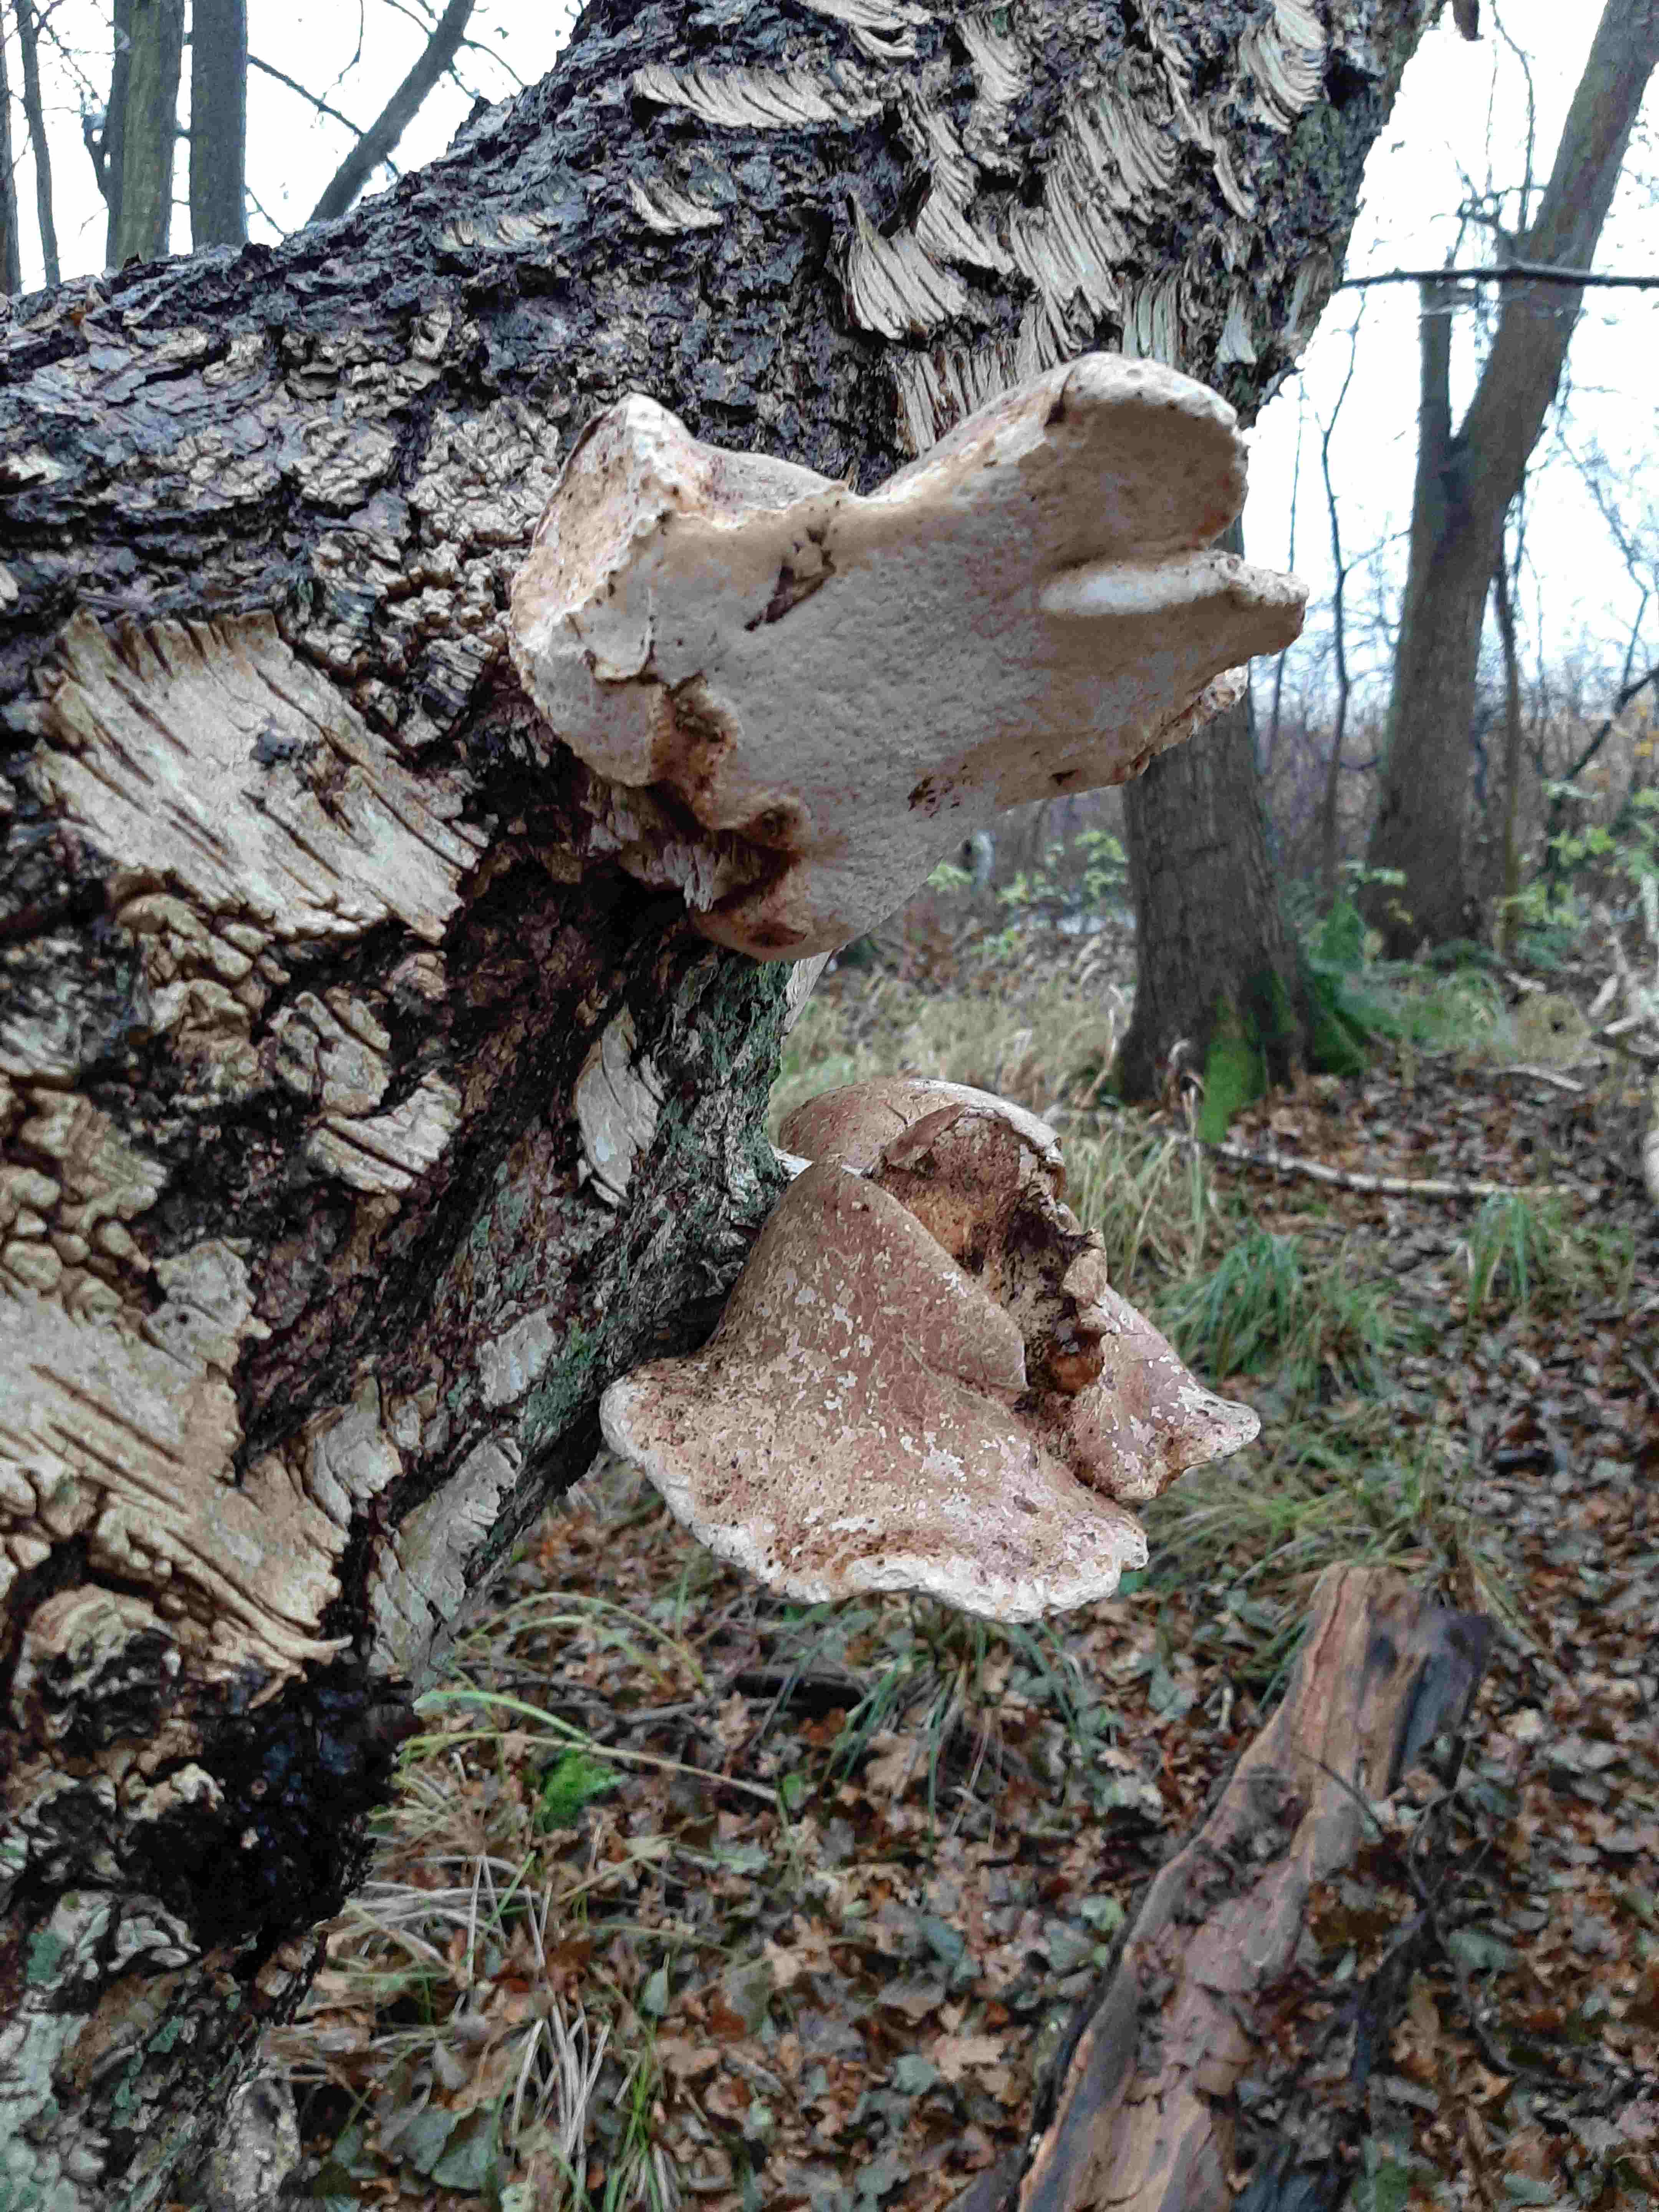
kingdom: Fungi
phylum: Basidiomycota
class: Agaricomycetes
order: Polyporales
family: Fomitopsidaceae
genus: Fomitopsis
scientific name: Fomitopsis betulina
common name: birkeporesvamp
